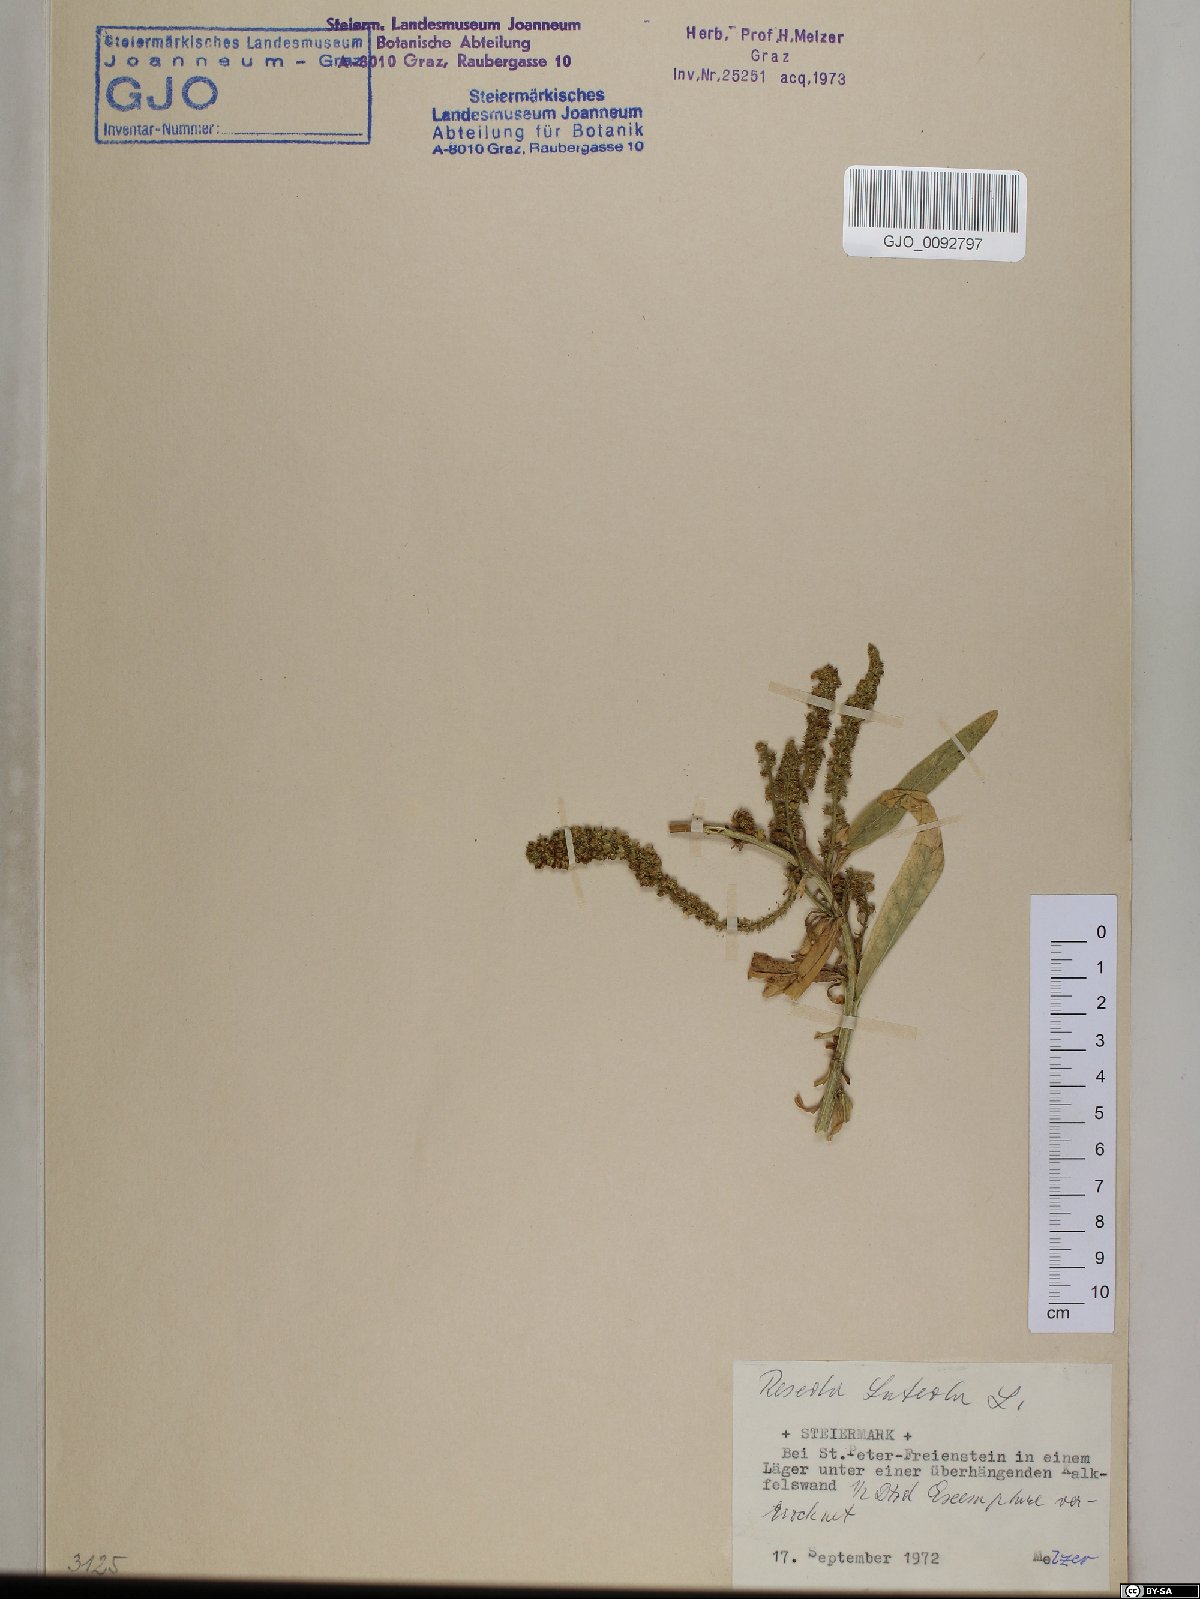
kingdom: Plantae
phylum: Tracheophyta
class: Magnoliopsida
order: Brassicales
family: Resedaceae
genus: Reseda
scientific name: Reseda luteola
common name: Weld
